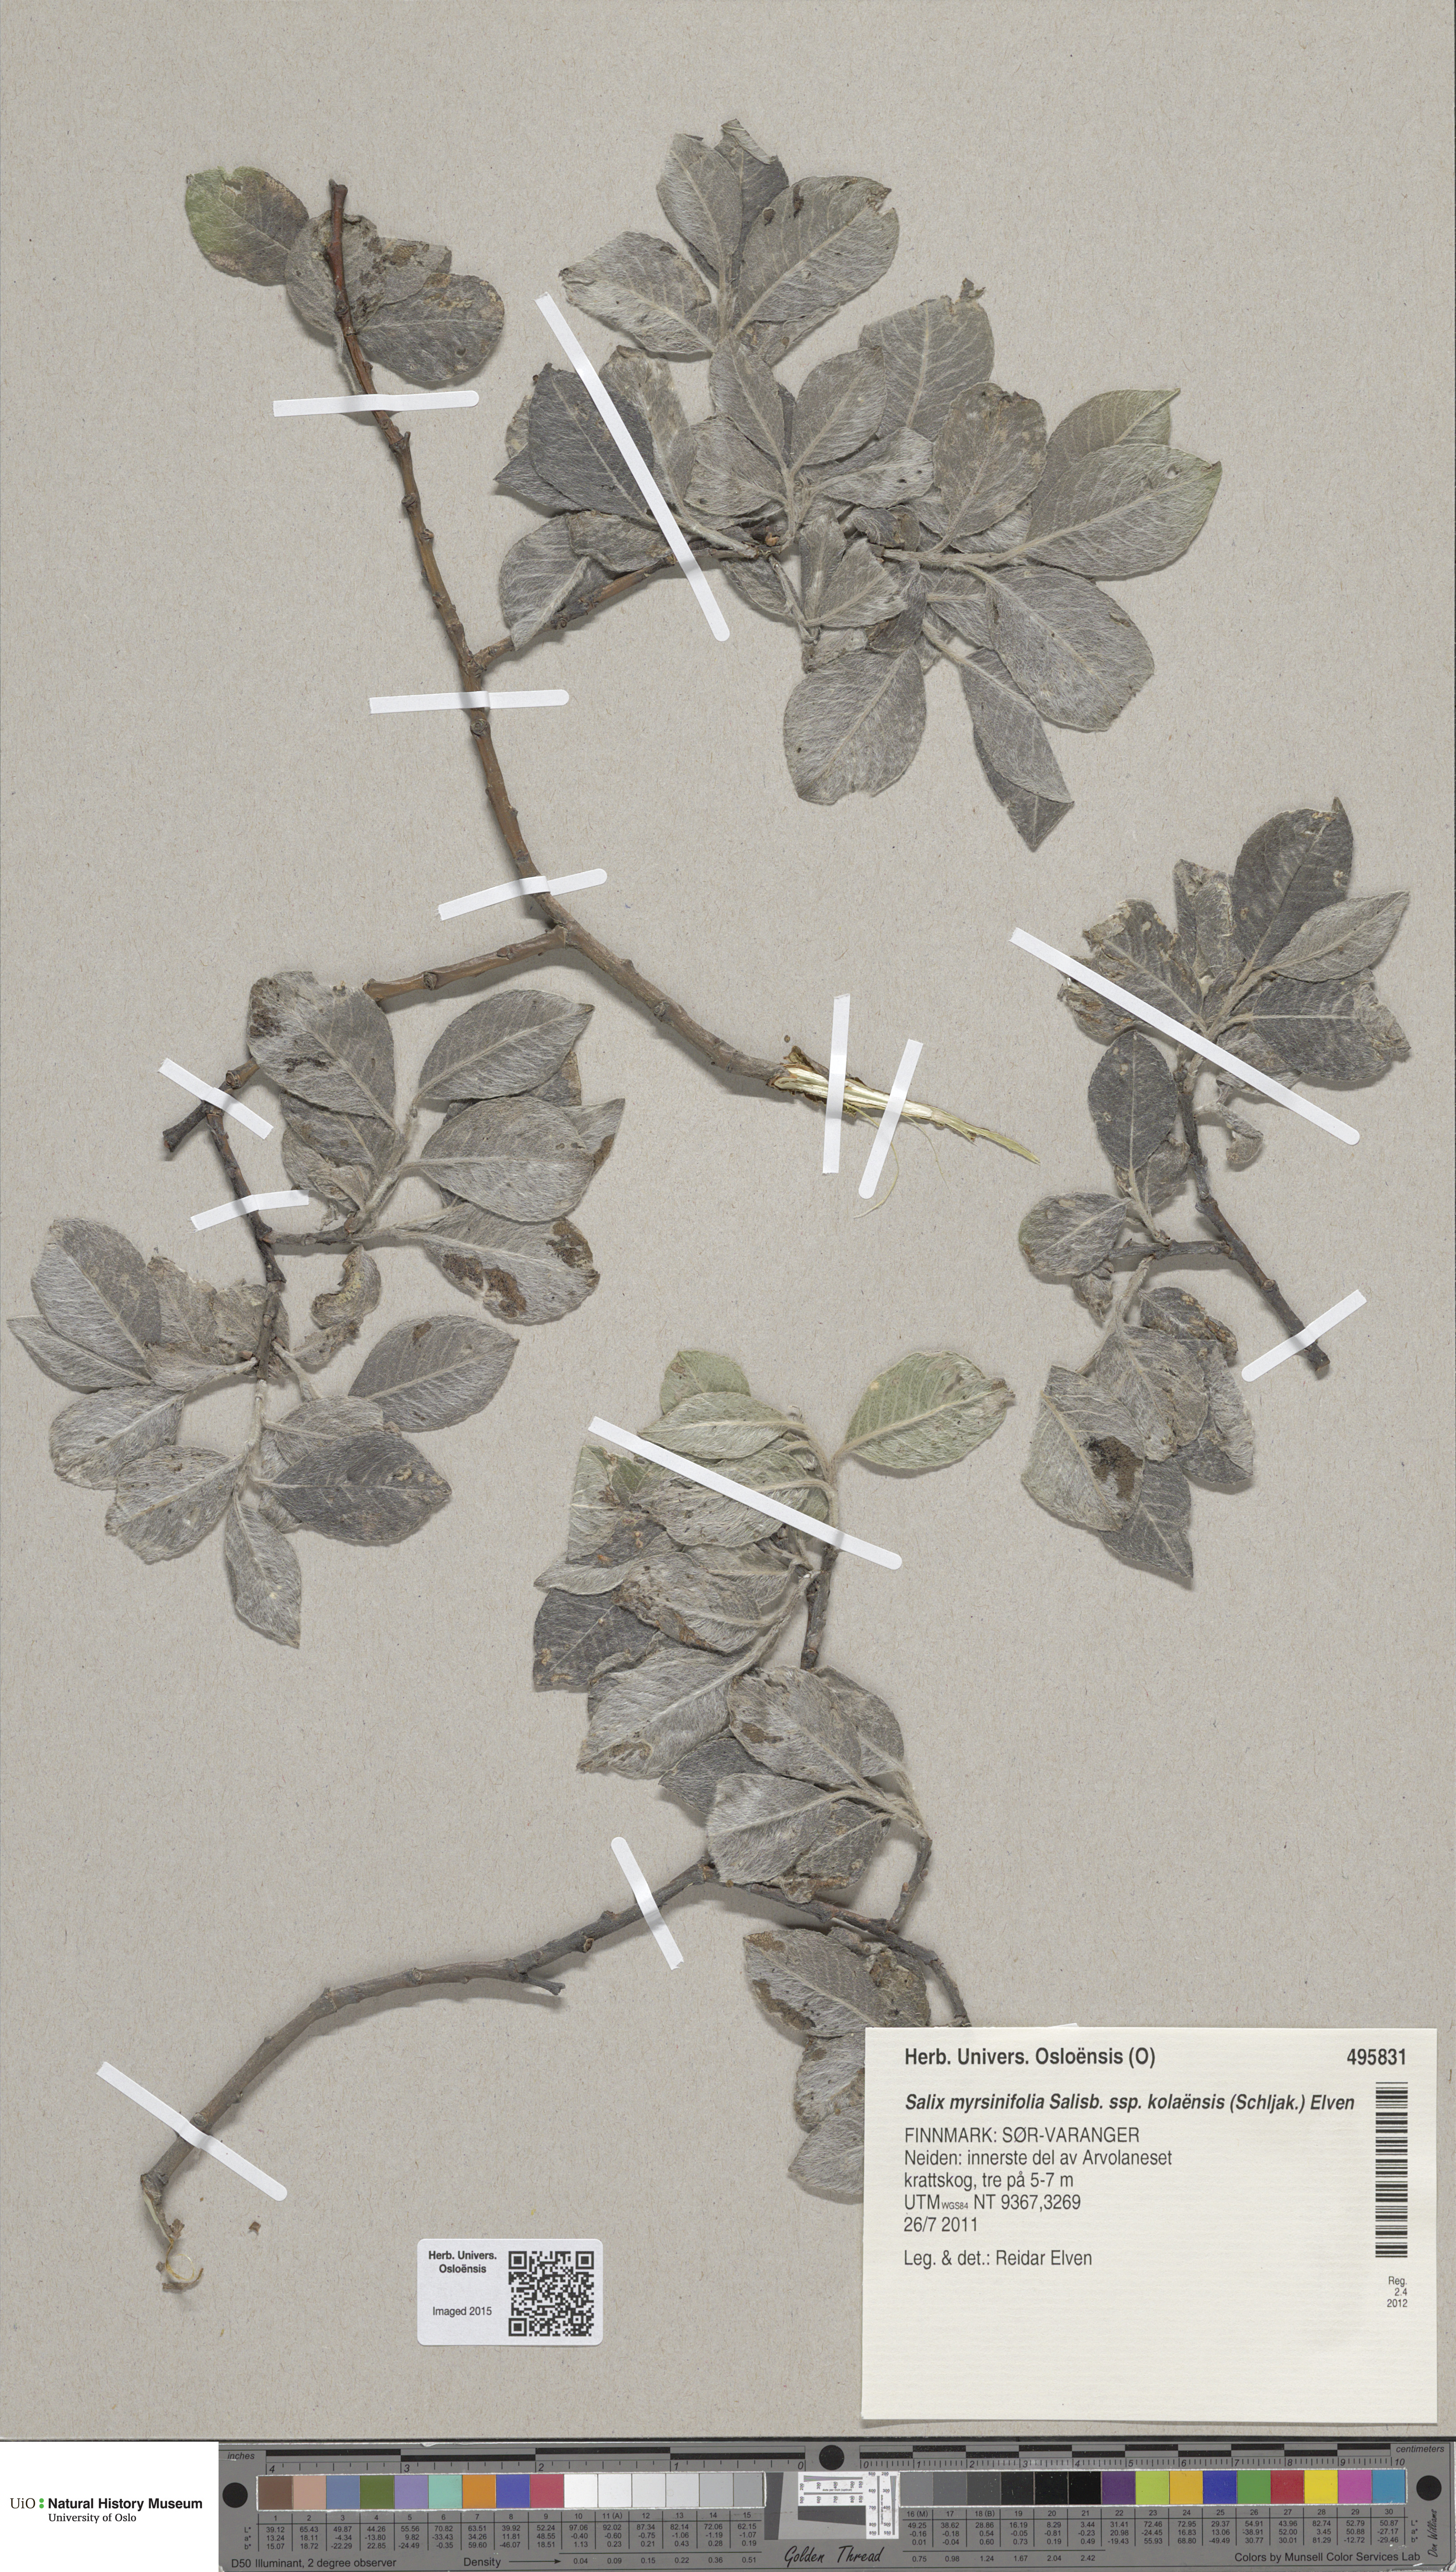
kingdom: Plantae
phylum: Tracheophyta
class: Magnoliopsida
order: Malpighiales
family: Salicaceae
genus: Salix
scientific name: Salix myrsinifolia
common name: Dark-leaved willow
